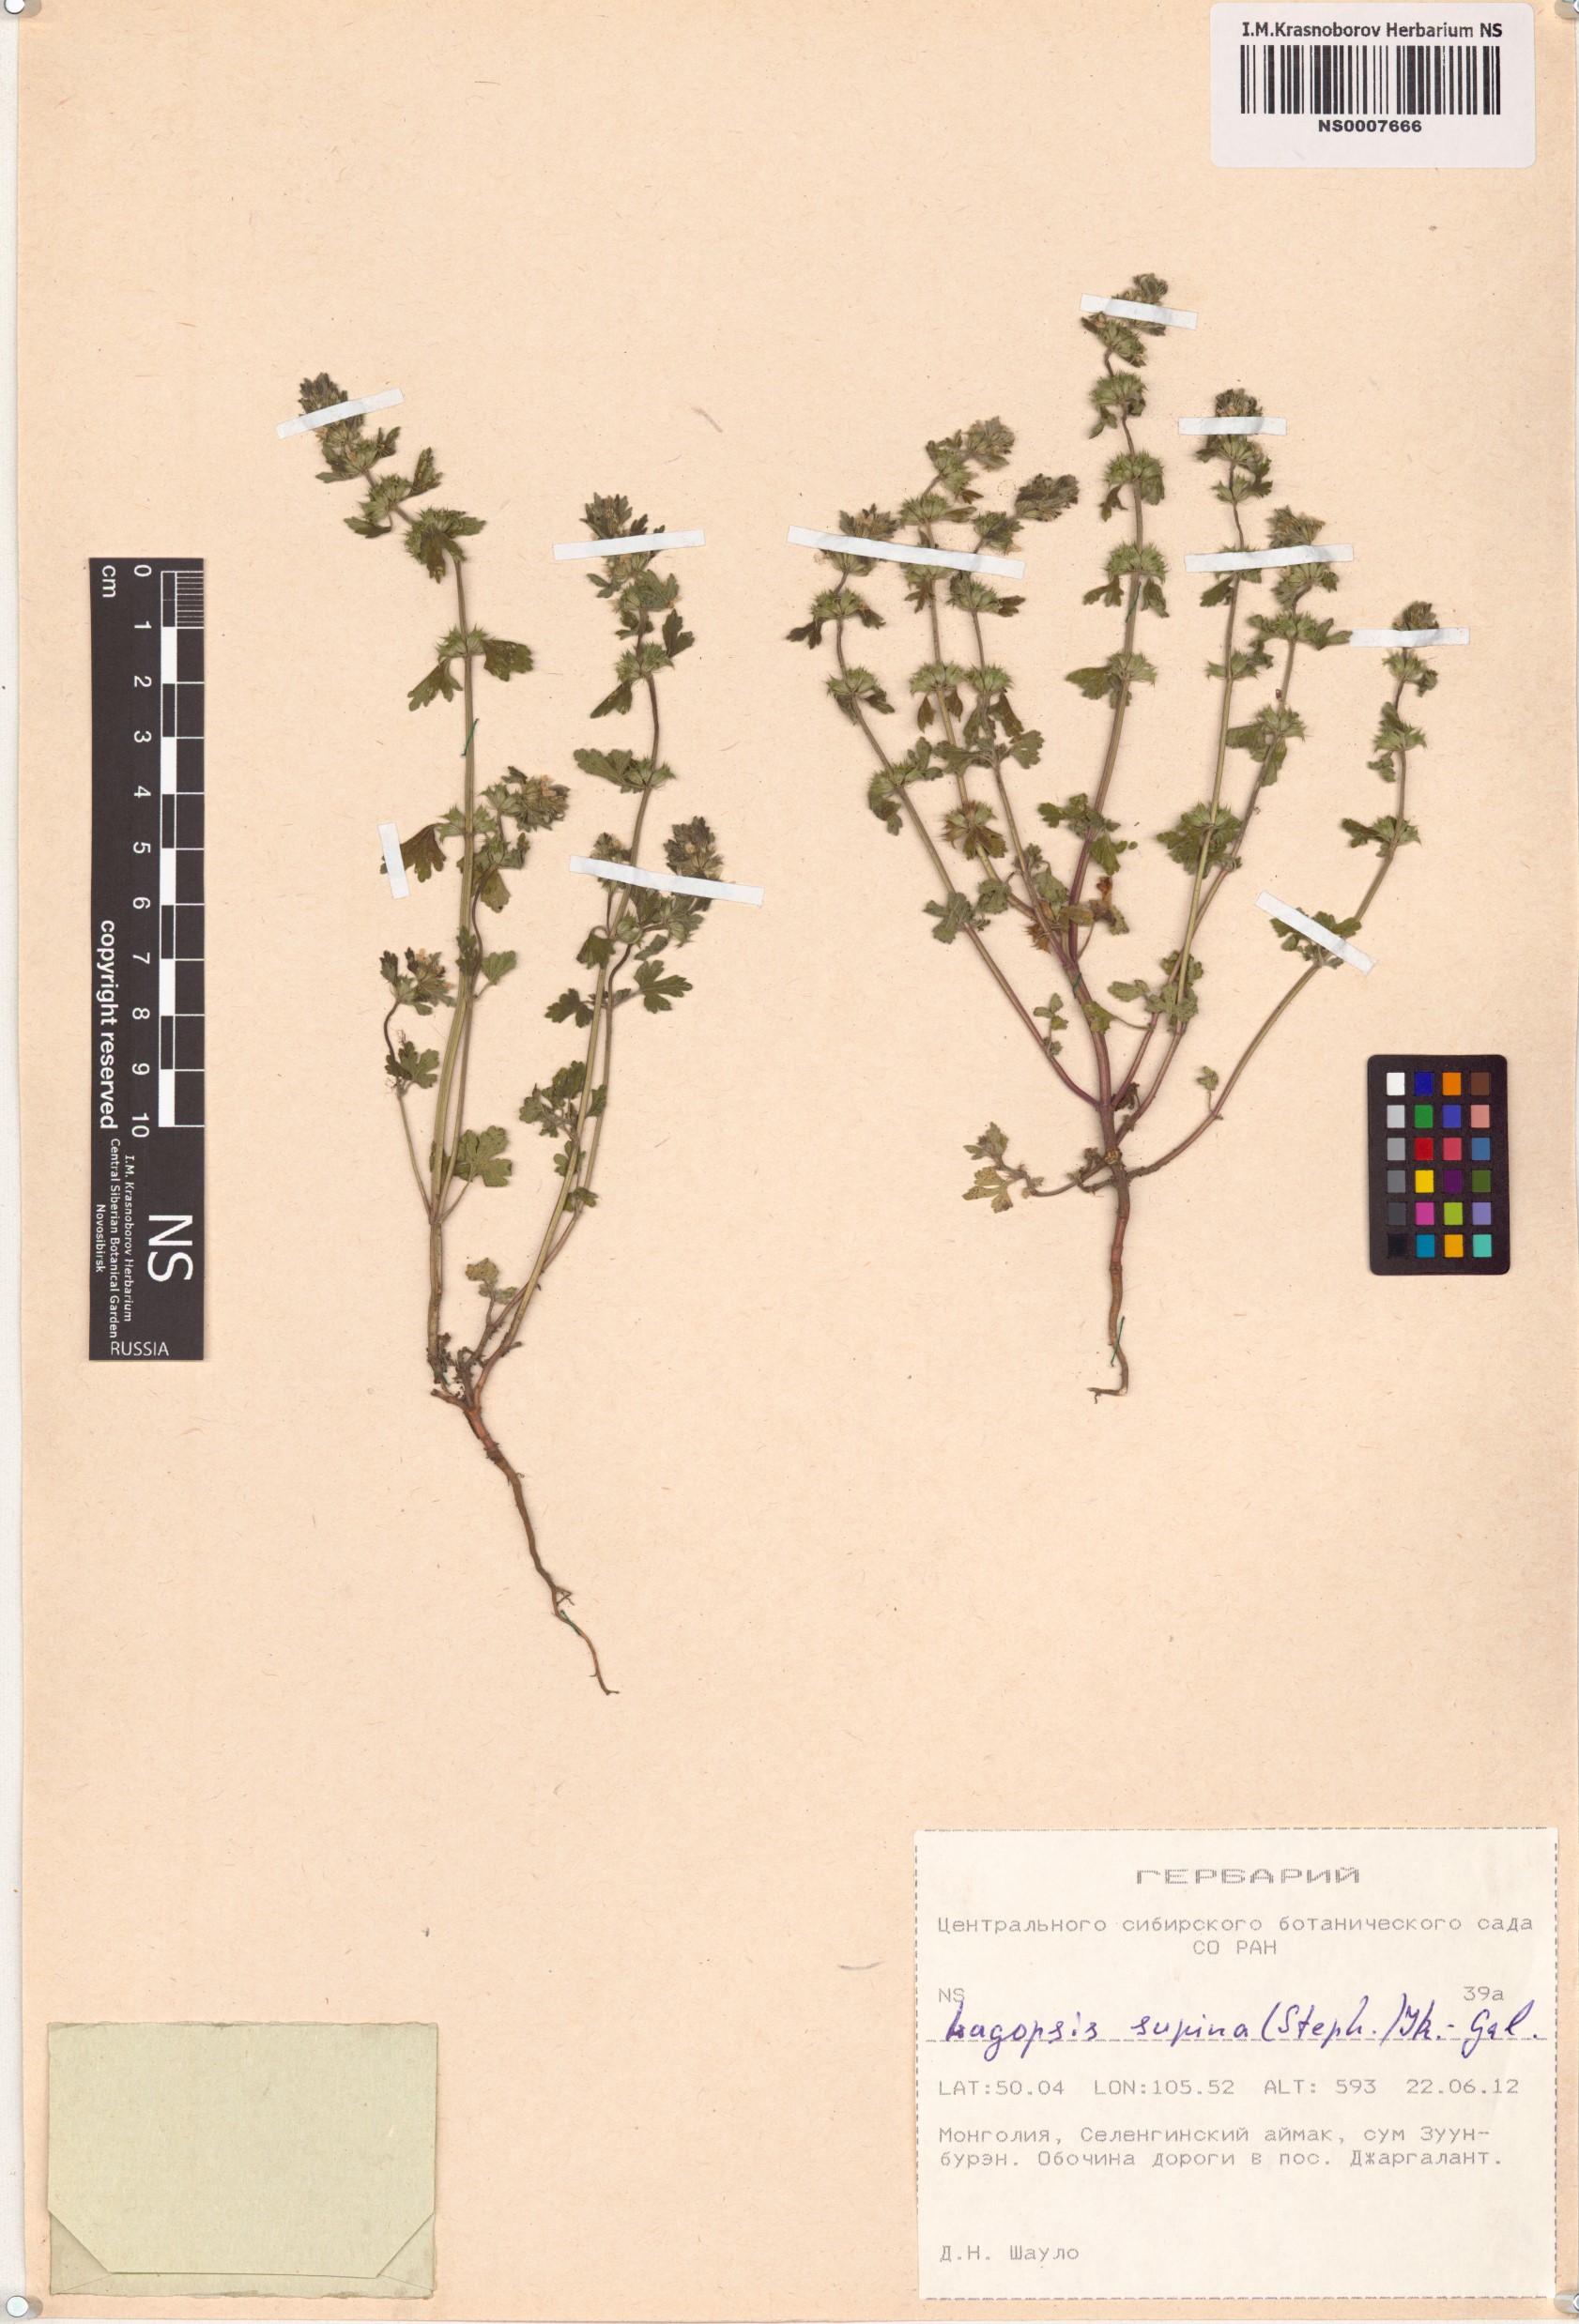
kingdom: Plantae
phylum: Tracheophyta
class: Magnoliopsida
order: Lamiales
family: Lamiaceae
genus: Lagopsis
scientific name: Lagopsis supina
